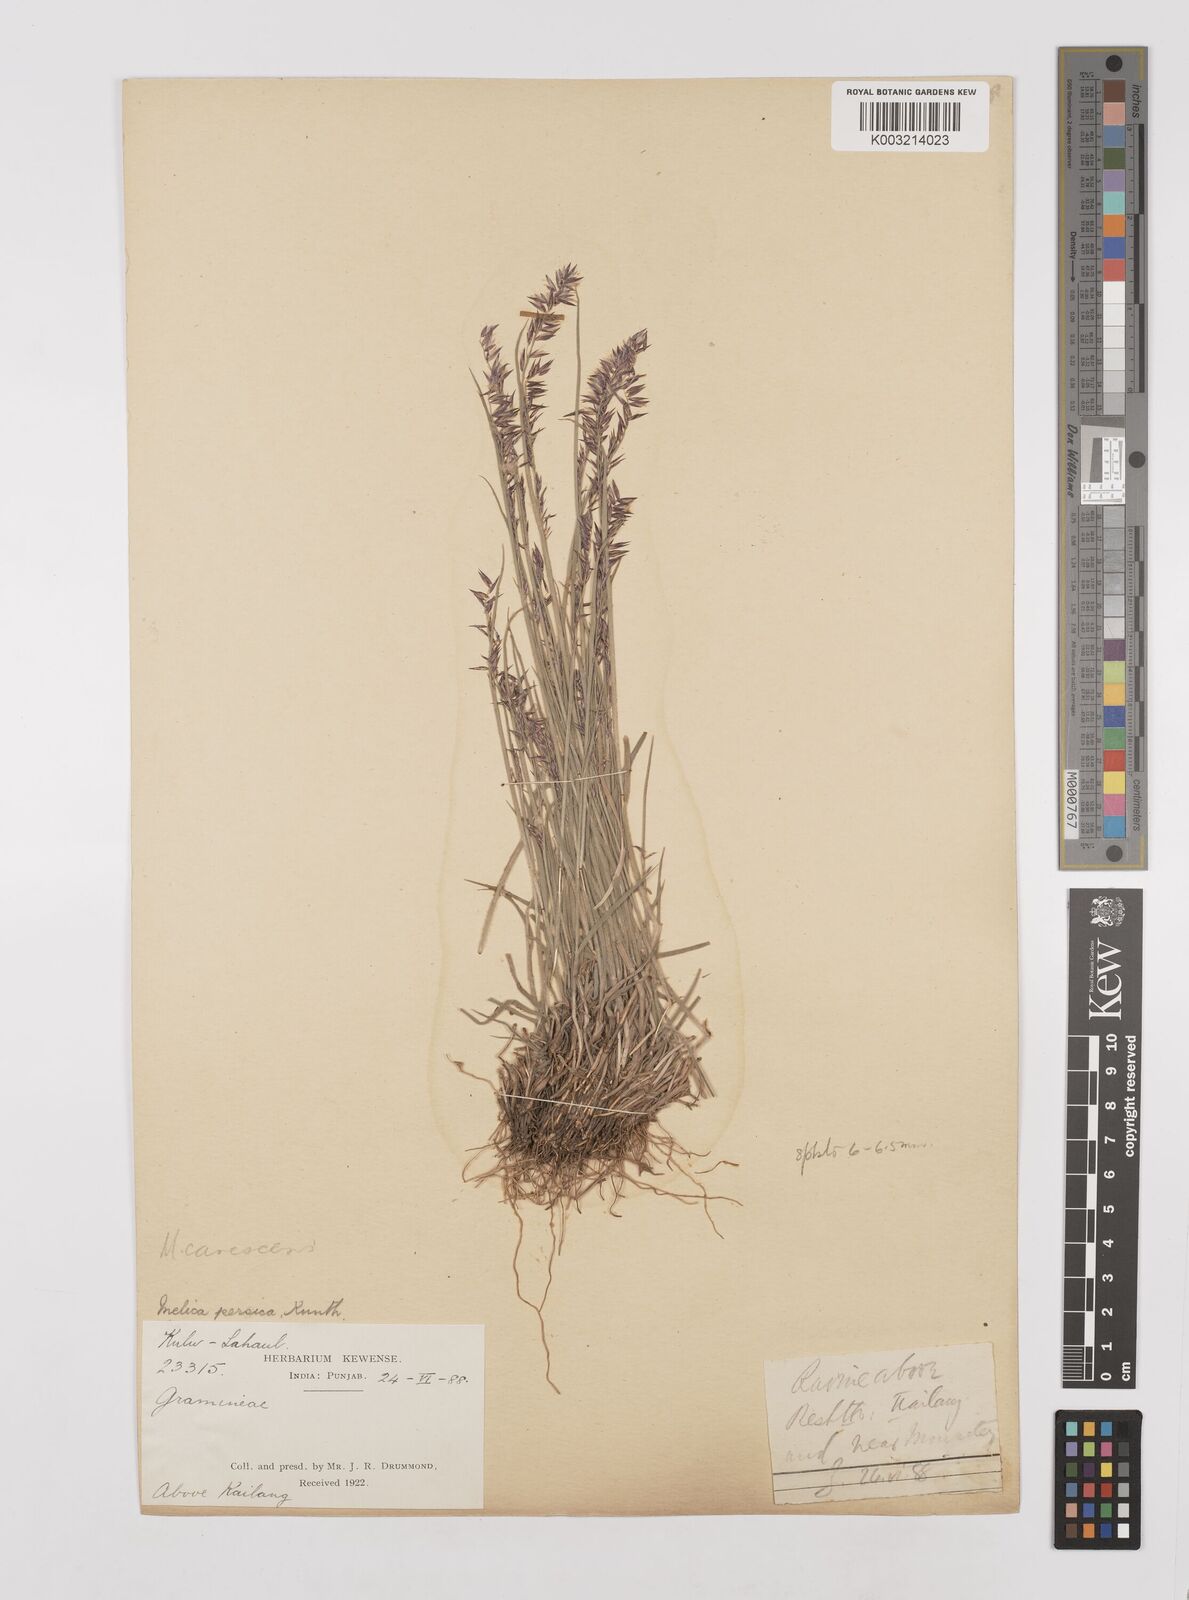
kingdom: Plantae
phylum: Tracheophyta
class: Liliopsida
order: Poales
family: Poaceae
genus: Melica
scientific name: Melica persica
